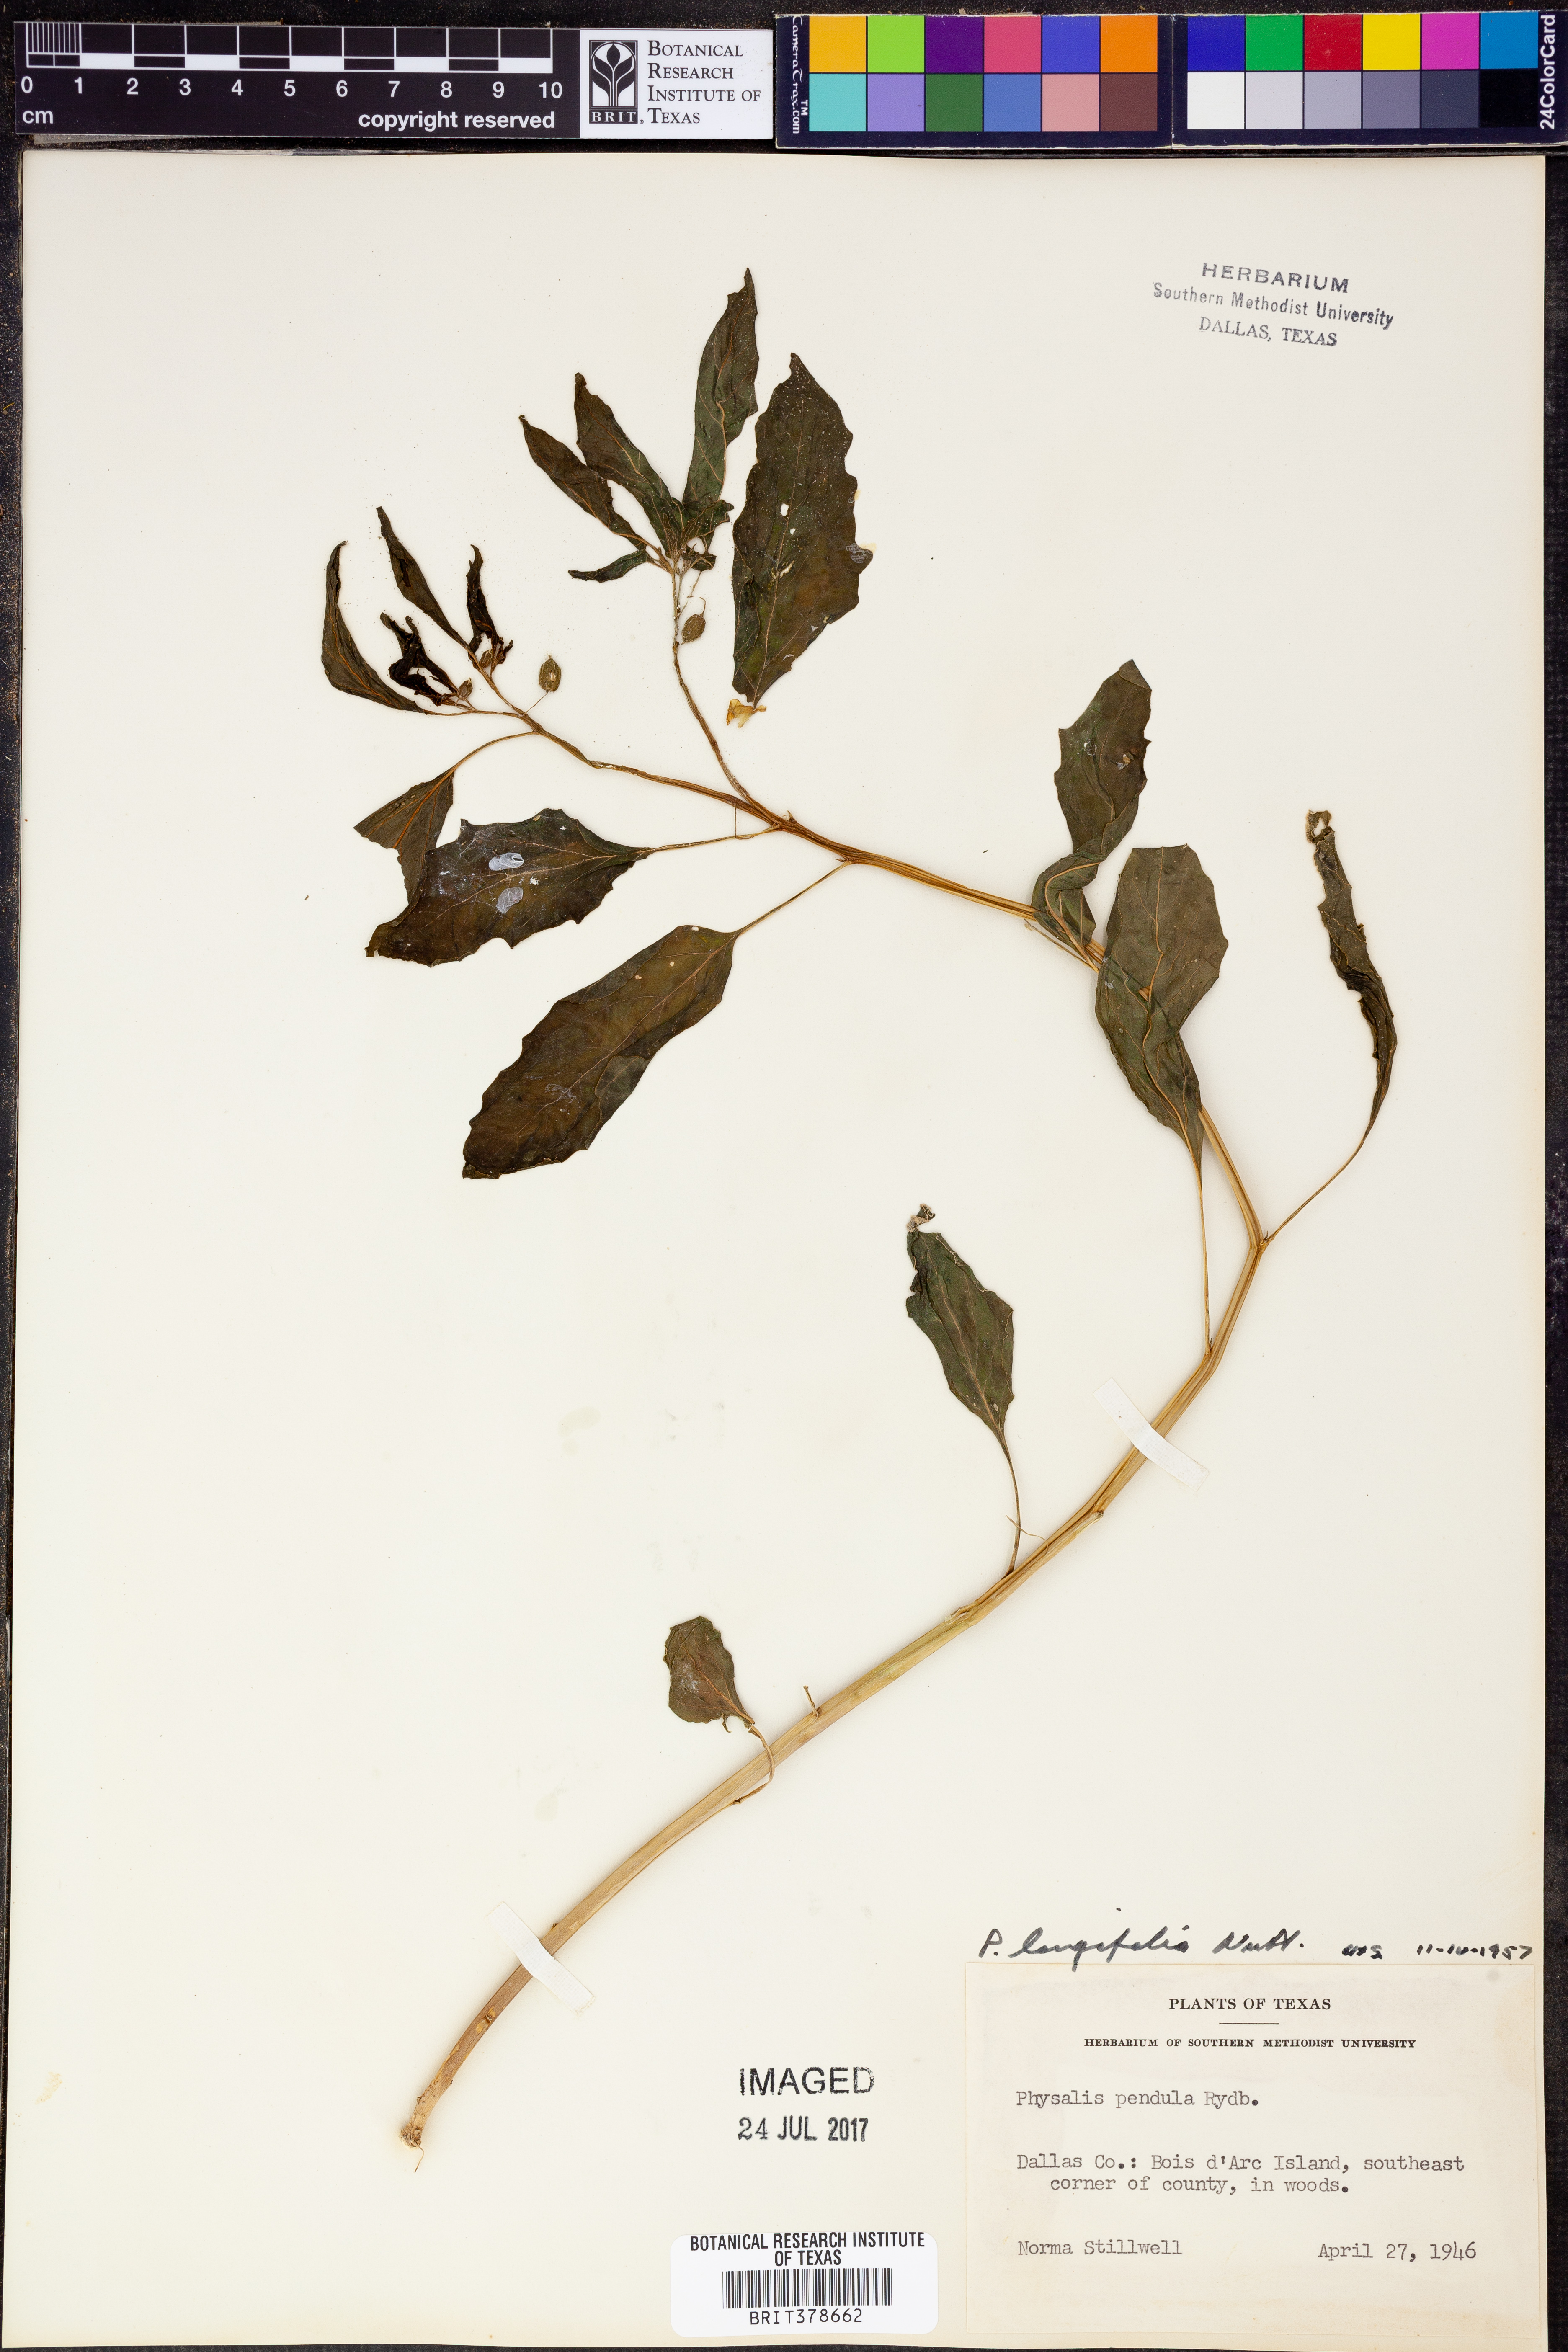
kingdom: Plantae
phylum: Tracheophyta
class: Magnoliopsida
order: Solanales
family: Solanaceae
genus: Physalis
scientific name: Physalis longifolia
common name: Common ground-cherry
